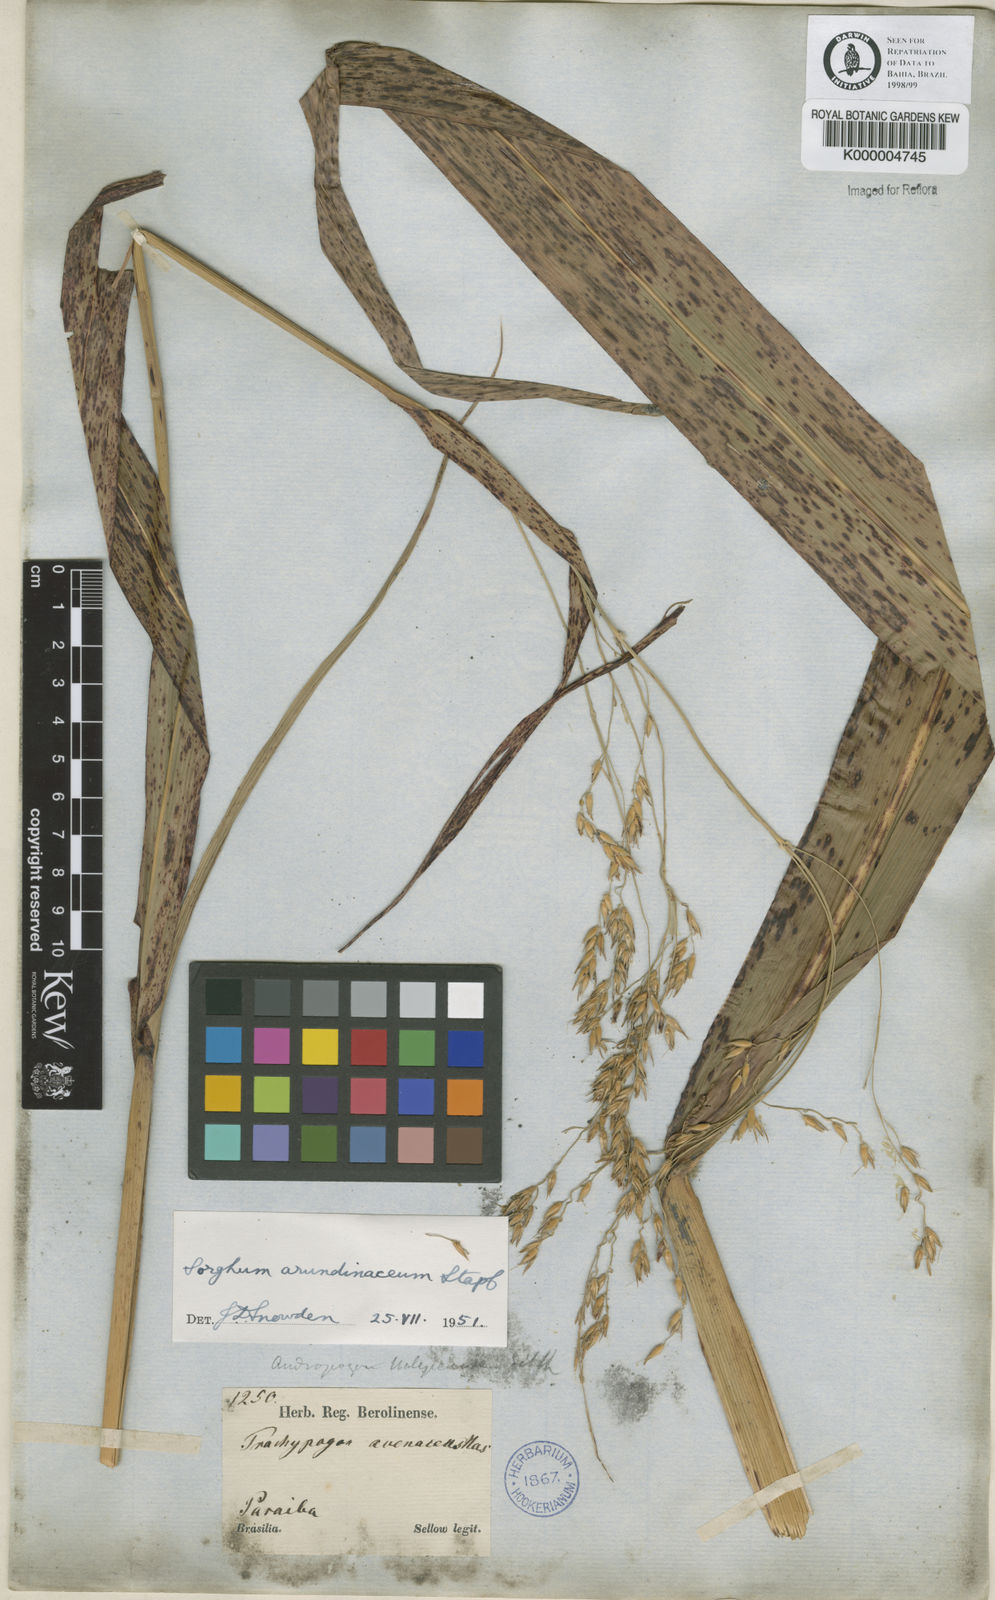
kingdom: Plantae
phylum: Tracheophyta
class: Liliopsida
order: Poales
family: Poaceae
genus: Sorghum
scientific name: Sorghum arundinaceum
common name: Sorghum
